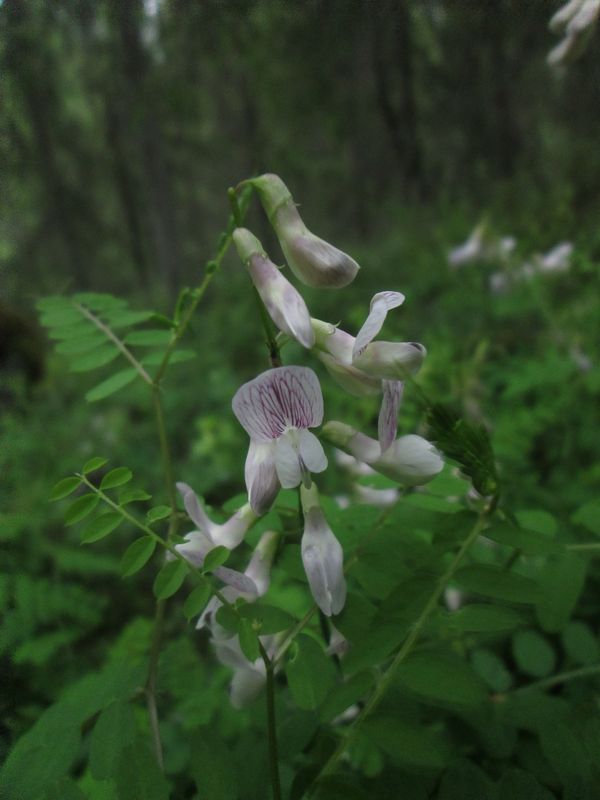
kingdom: Plantae
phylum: Tracheophyta
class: Magnoliopsida
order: Fabales
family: Fabaceae
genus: Vicia
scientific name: Vicia sylvatica
